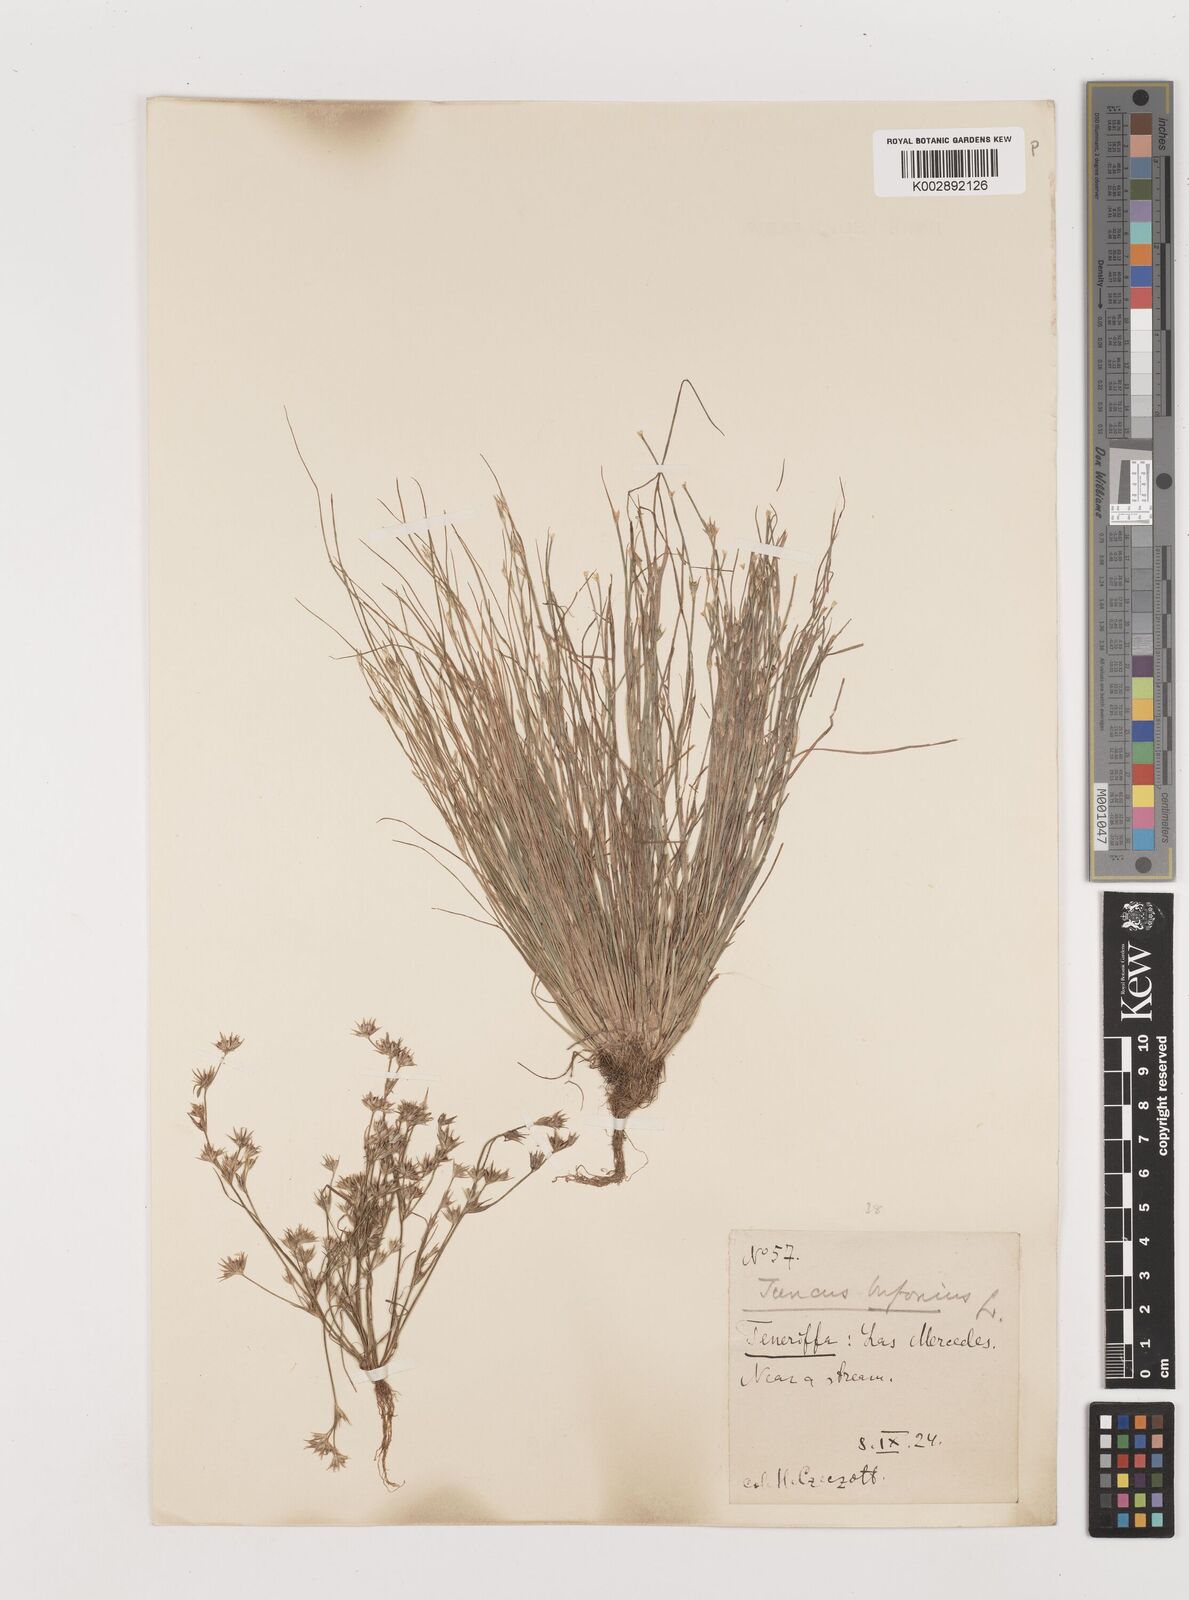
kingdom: Plantae
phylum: Tracheophyta
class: Liliopsida
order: Poales
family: Juncaceae
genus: Juncus
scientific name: Juncus bufonius
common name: Toad rush
